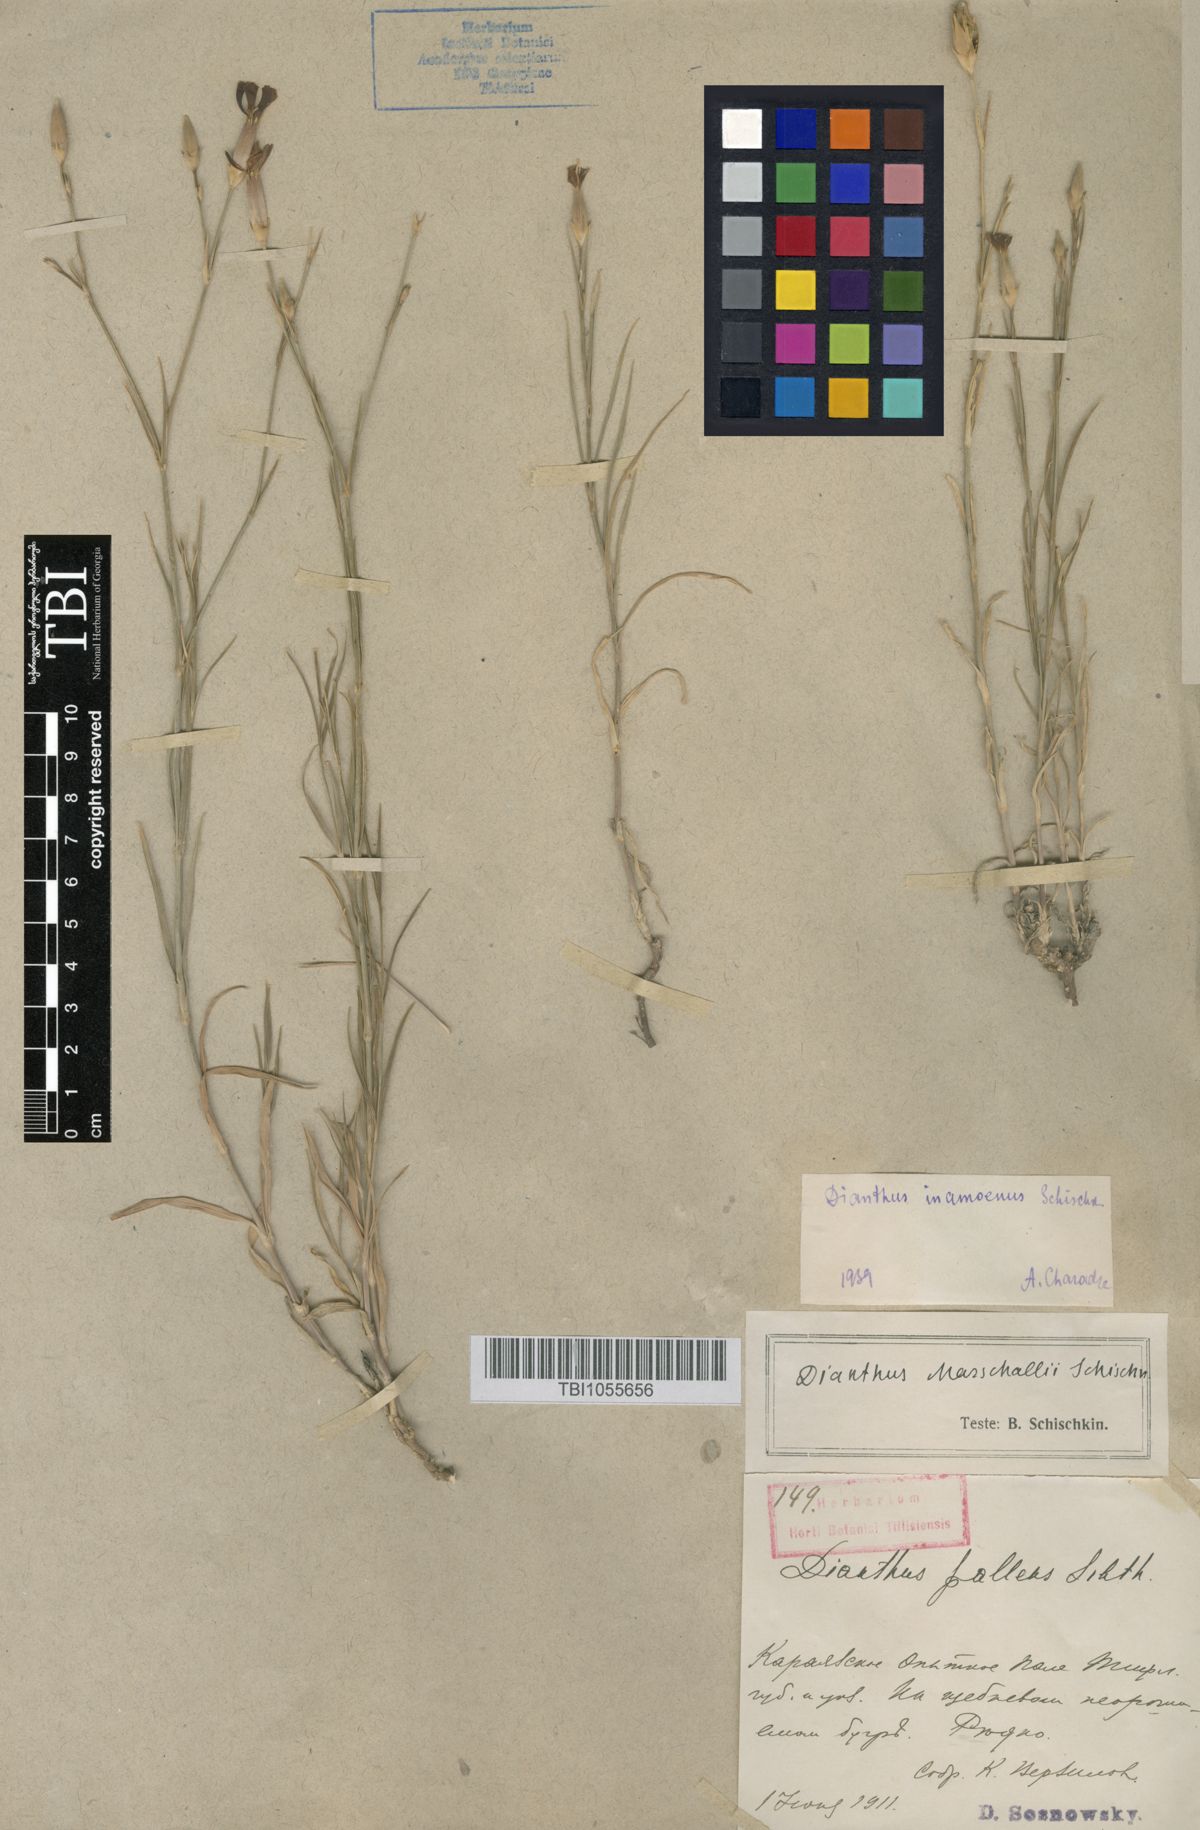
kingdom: Plantae
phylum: Tracheophyta
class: Magnoliopsida
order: Caryophyllales
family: Caryophyllaceae
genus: Dianthus
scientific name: Dianthus inamoenus
